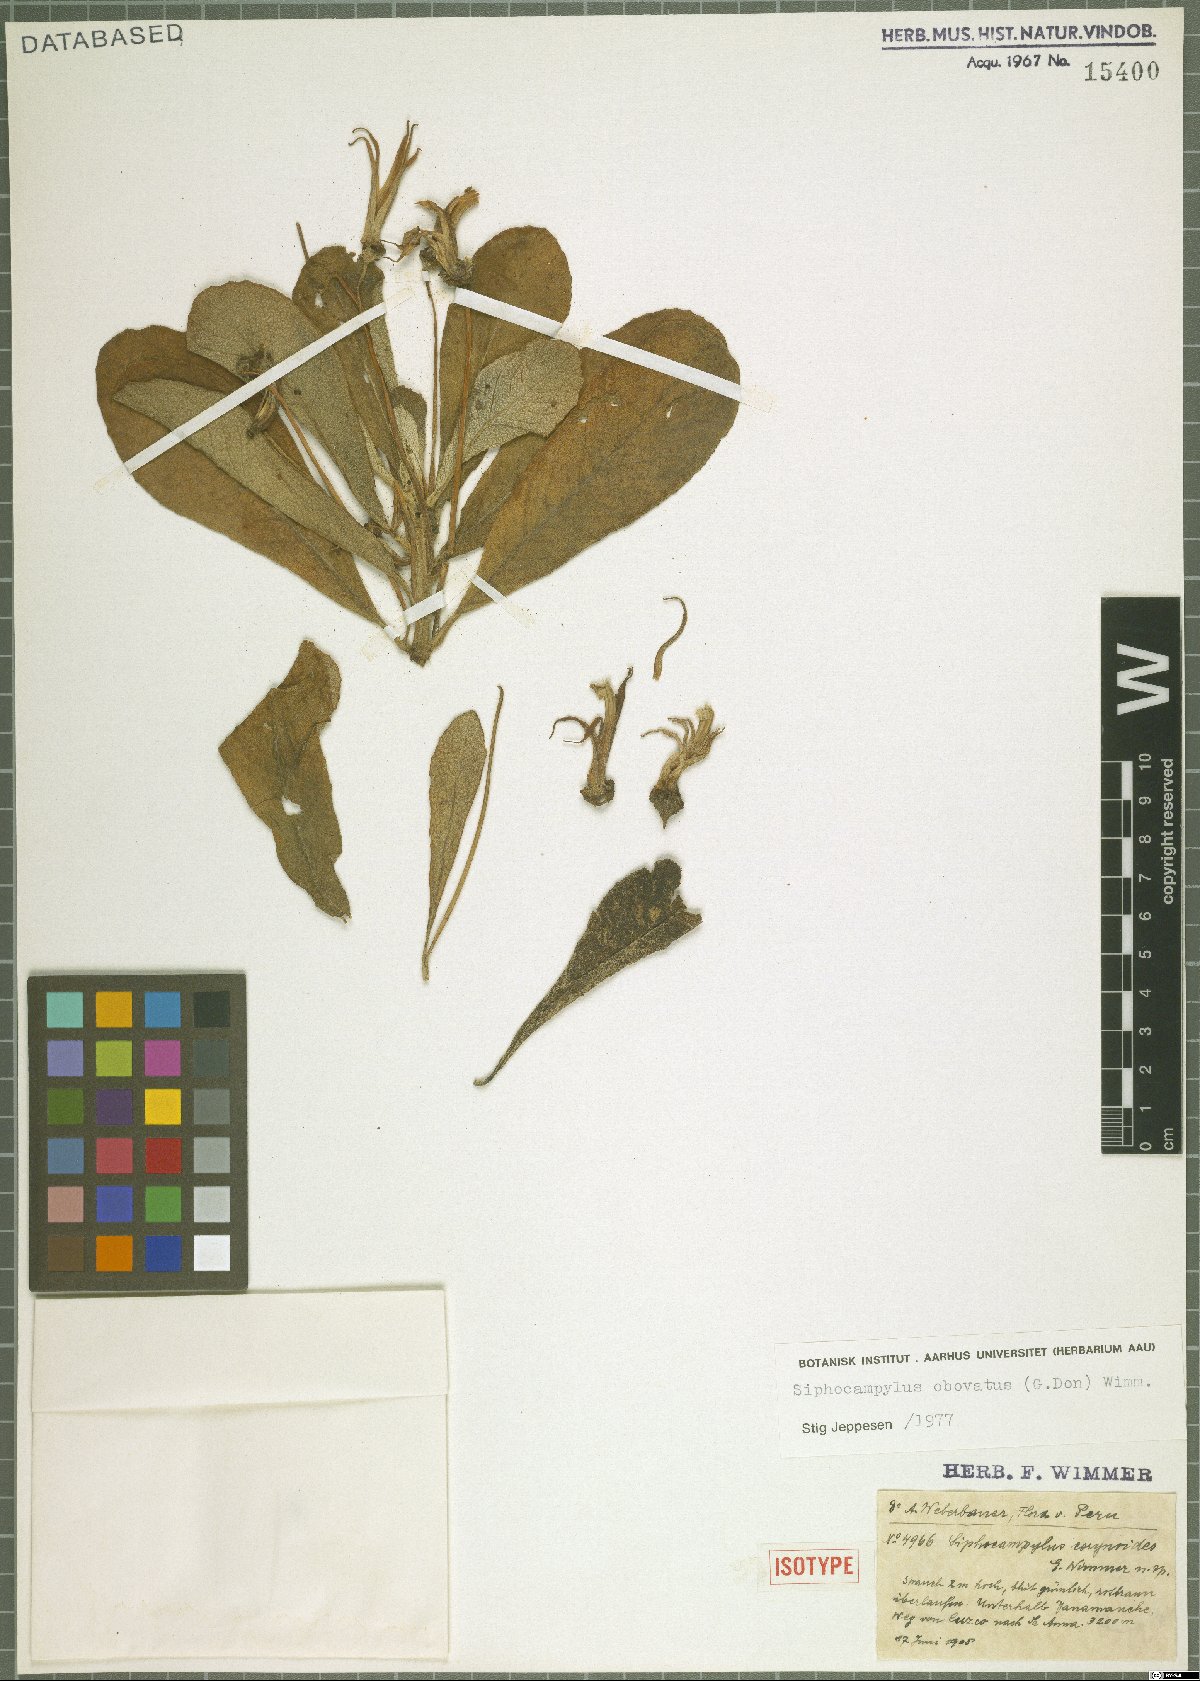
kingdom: Plantae
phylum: Tracheophyta
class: Magnoliopsida
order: Asterales
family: Campanulaceae
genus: Siphocampylus
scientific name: Siphocampylus obovatus
